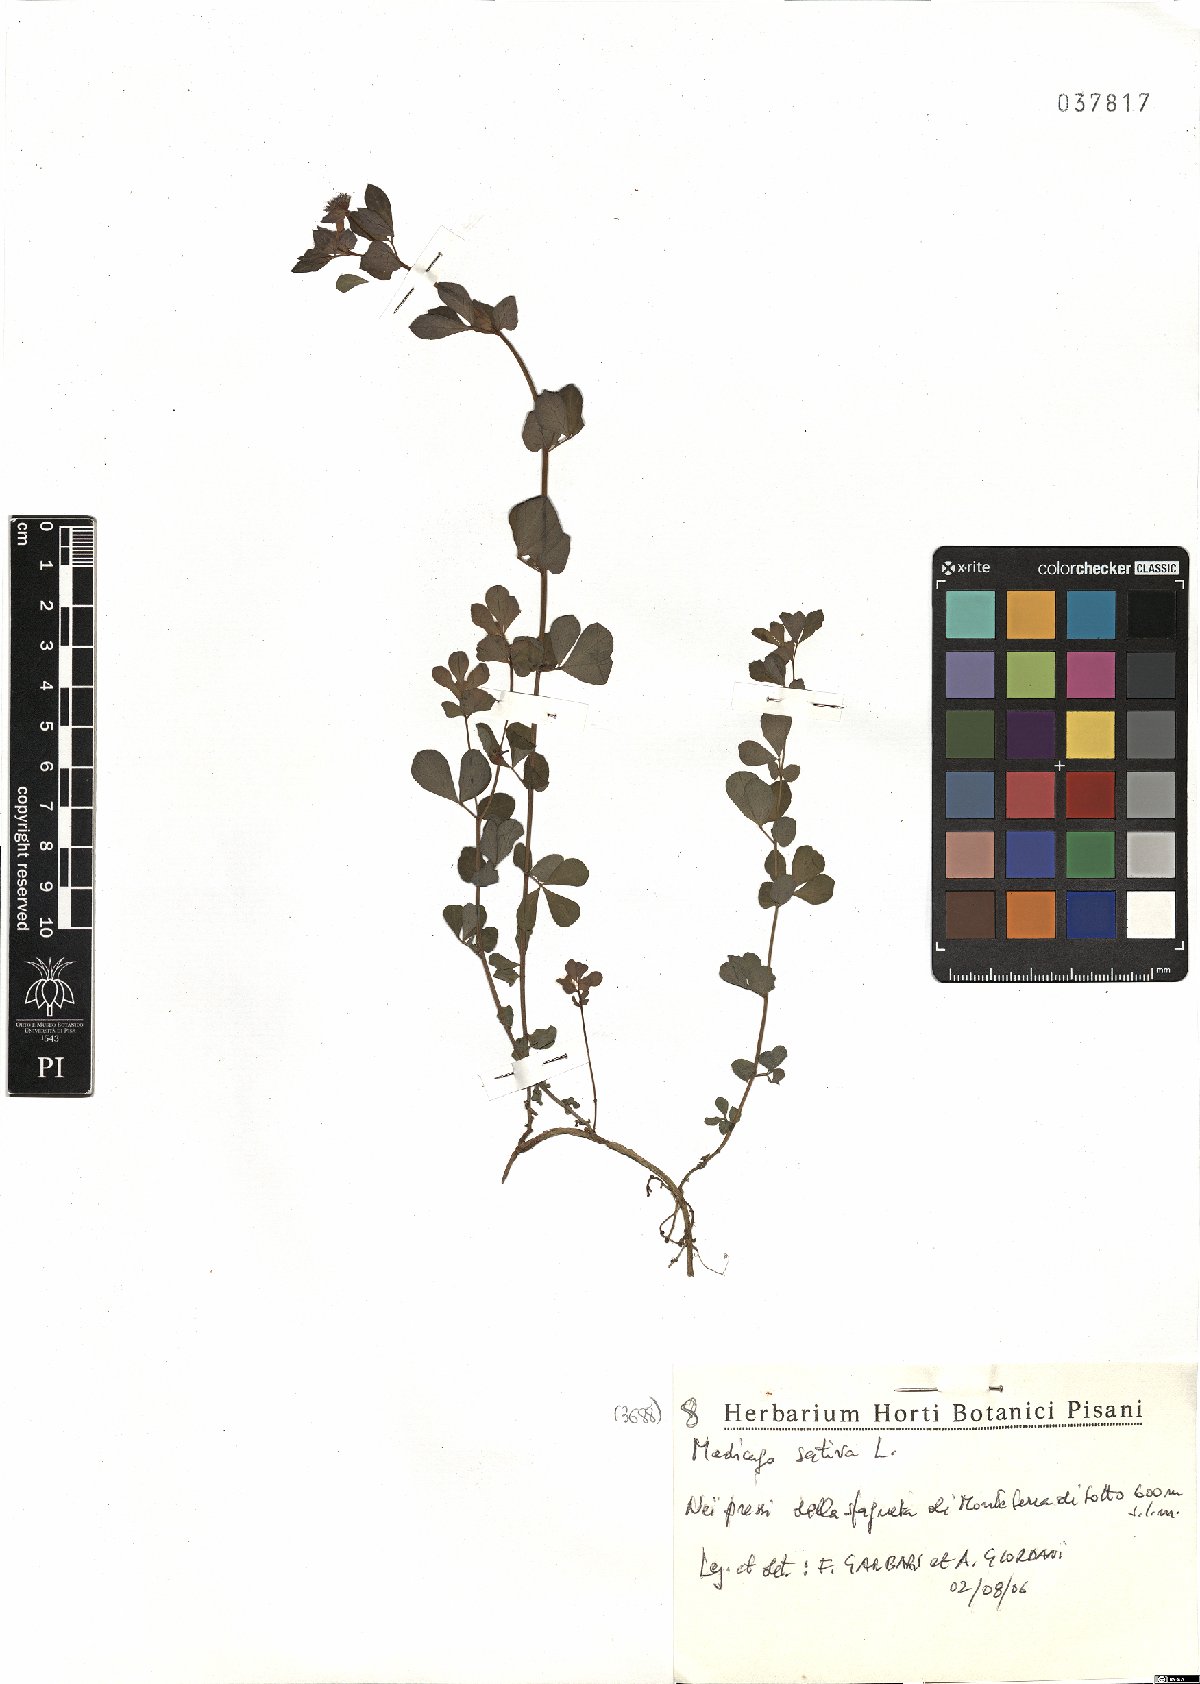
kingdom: Plantae
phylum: Tracheophyta
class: Magnoliopsida
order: Fabales
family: Fabaceae
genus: Medicago
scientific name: Medicago sativa
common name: Alfalfa
